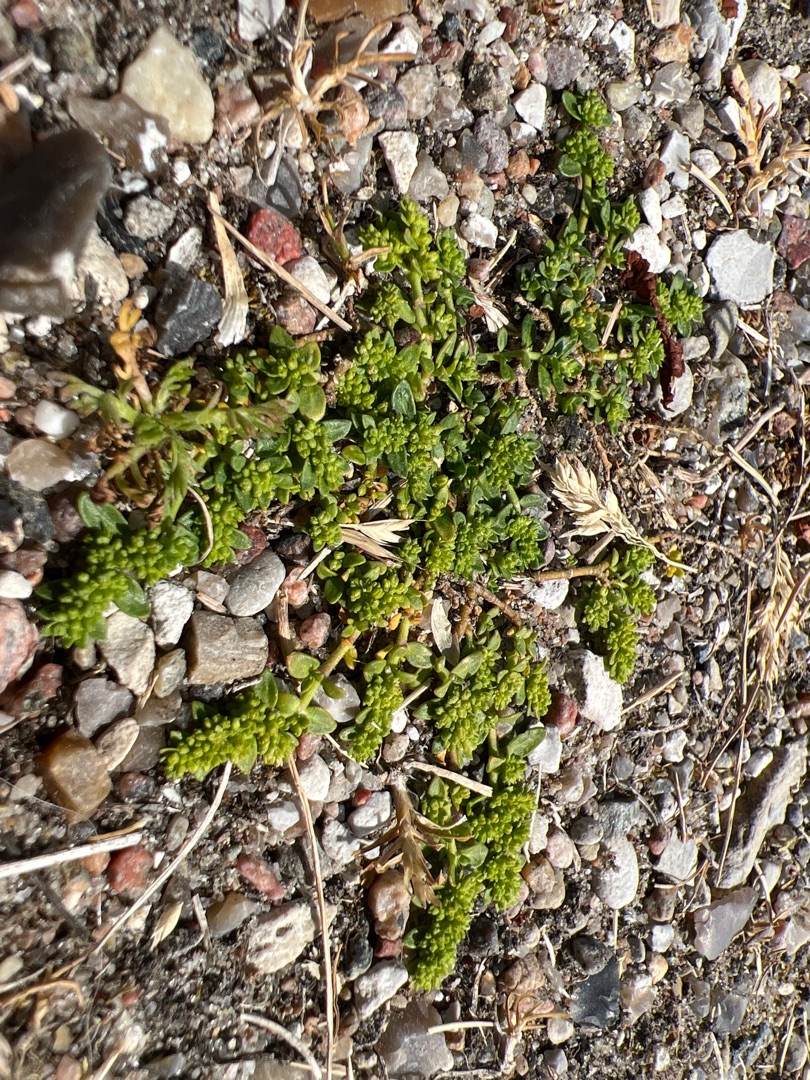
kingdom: Plantae
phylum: Tracheophyta
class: Magnoliopsida
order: Caryophyllales
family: Caryophyllaceae
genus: Herniaria
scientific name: Herniaria glabra
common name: Brudurt
